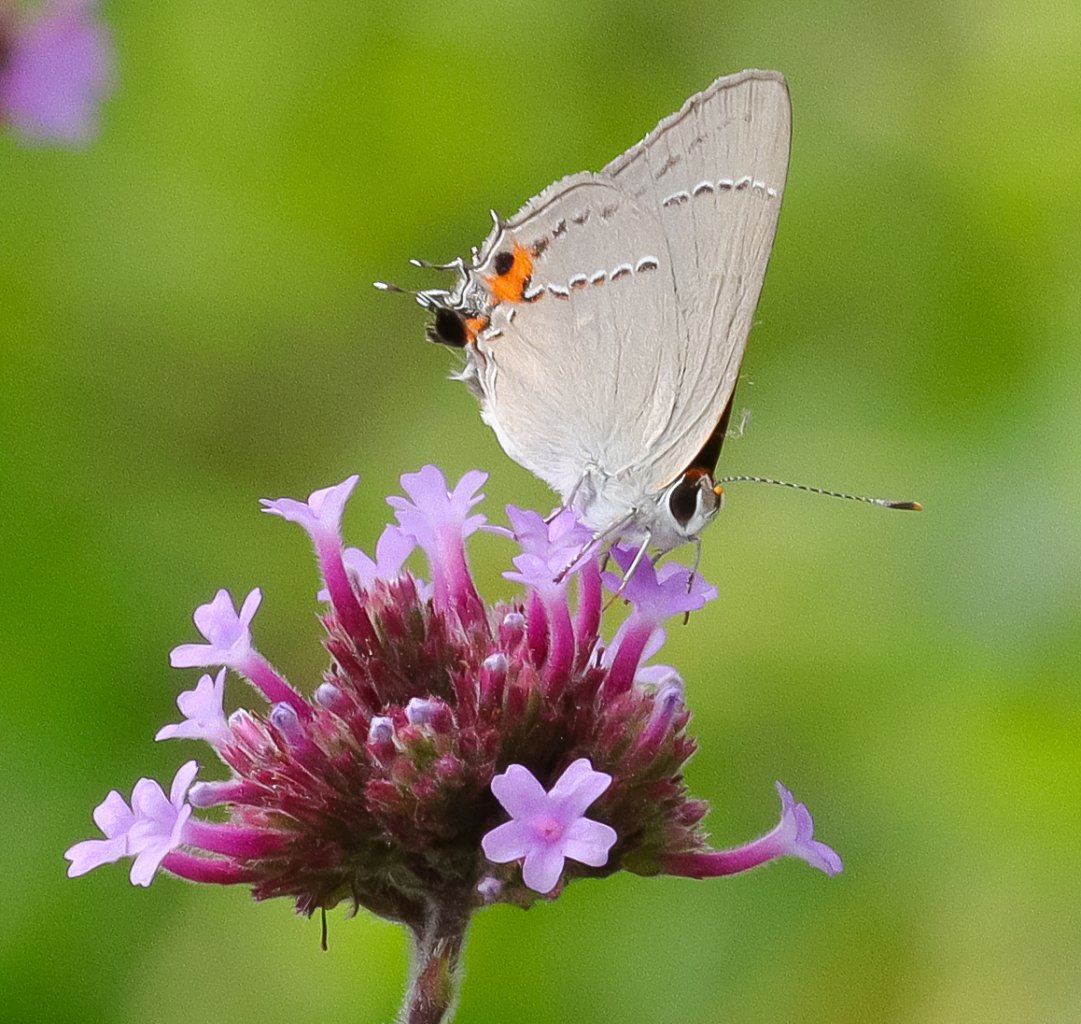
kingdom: Animalia
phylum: Arthropoda
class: Insecta
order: Lepidoptera
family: Lycaenidae
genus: Strymon
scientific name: Strymon melinus
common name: Gray Hairstreak
